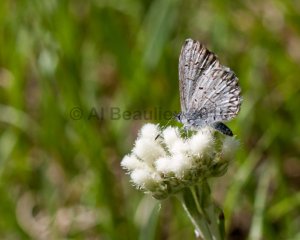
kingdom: Animalia
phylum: Arthropoda
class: Insecta
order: Lepidoptera
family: Lycaenidae
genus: Celastrina
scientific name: Celastrina lucia
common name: Northern Spring Azure
